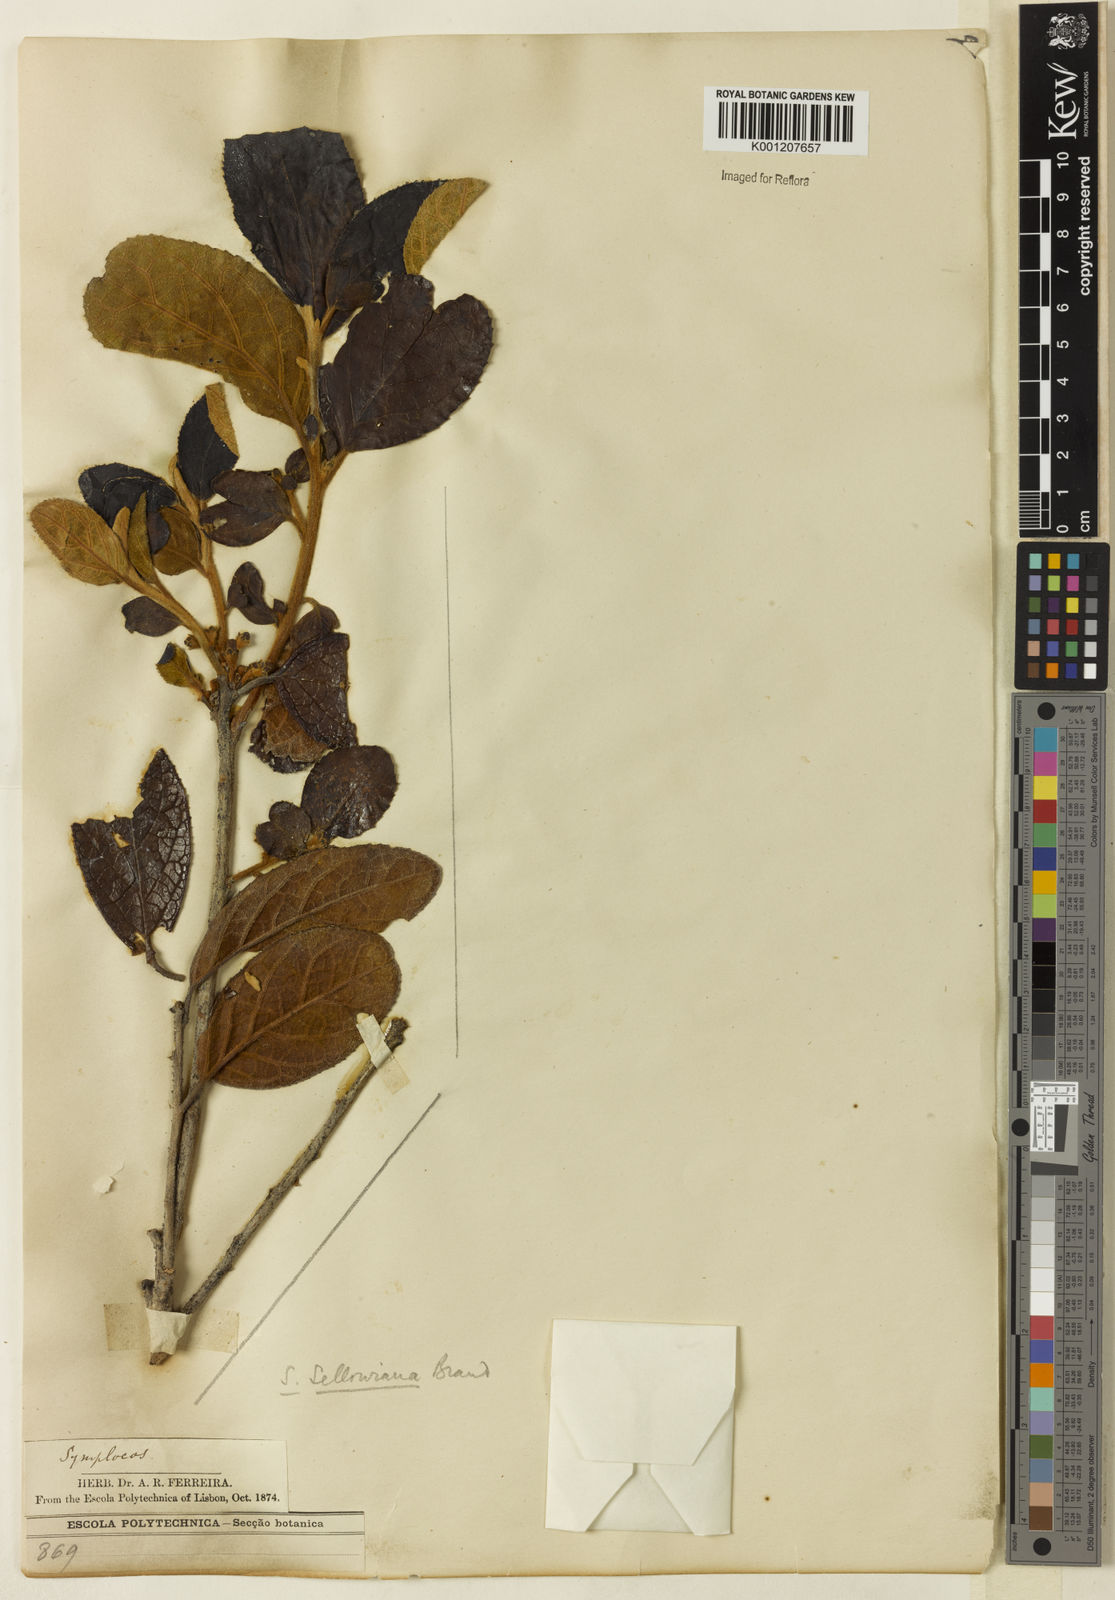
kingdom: Plantae
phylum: Tracheophyta
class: Magnoliopsida
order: Ericales
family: Symplocaceae
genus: Symplocos
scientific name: Symplocos platyphylla
